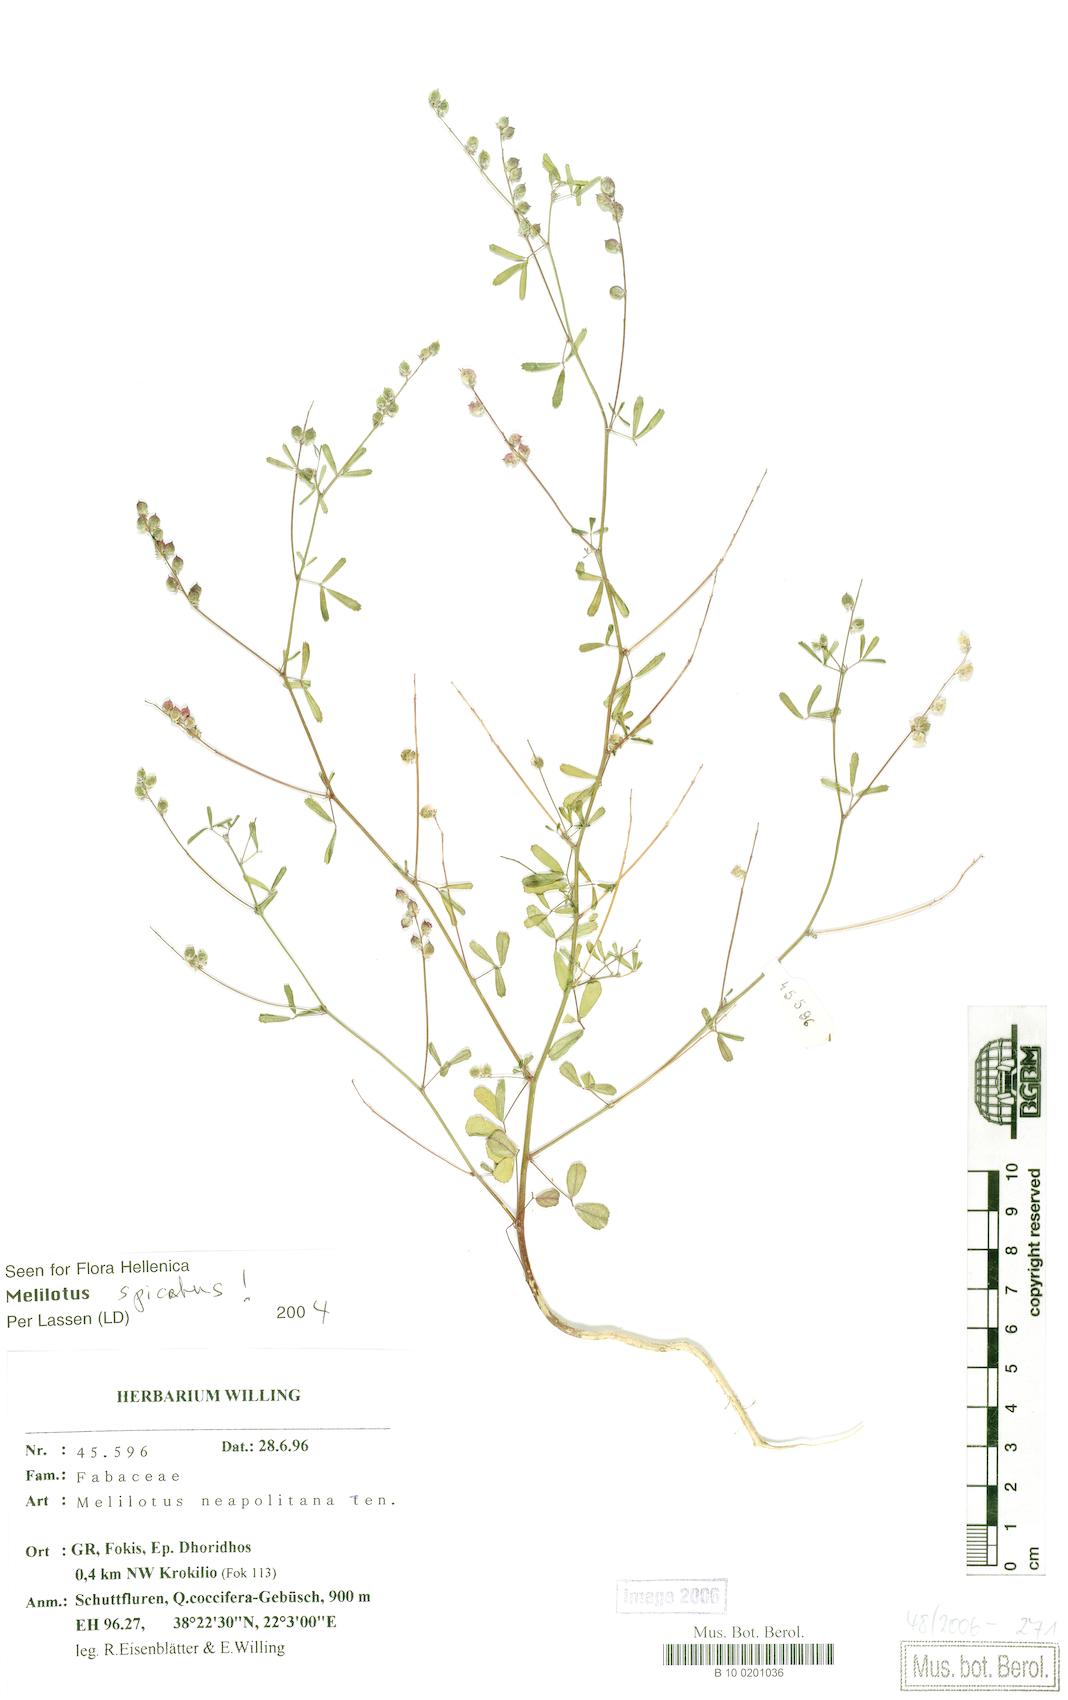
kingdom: Plantae
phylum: Tracheophyta
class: Magnoliopsida
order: Fabales
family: Fabaceae
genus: Melilotus
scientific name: Melilotus neapolitanus
